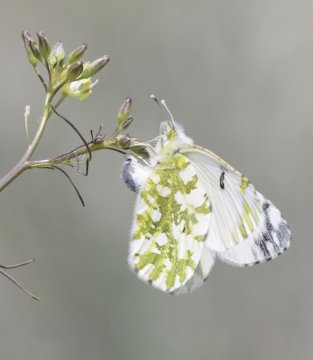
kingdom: Animalia
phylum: Arthropoda
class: Insecta
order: Lepidoptera
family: Pieridae
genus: Euchloe
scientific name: Euchloe ausonides
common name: Large Marble
